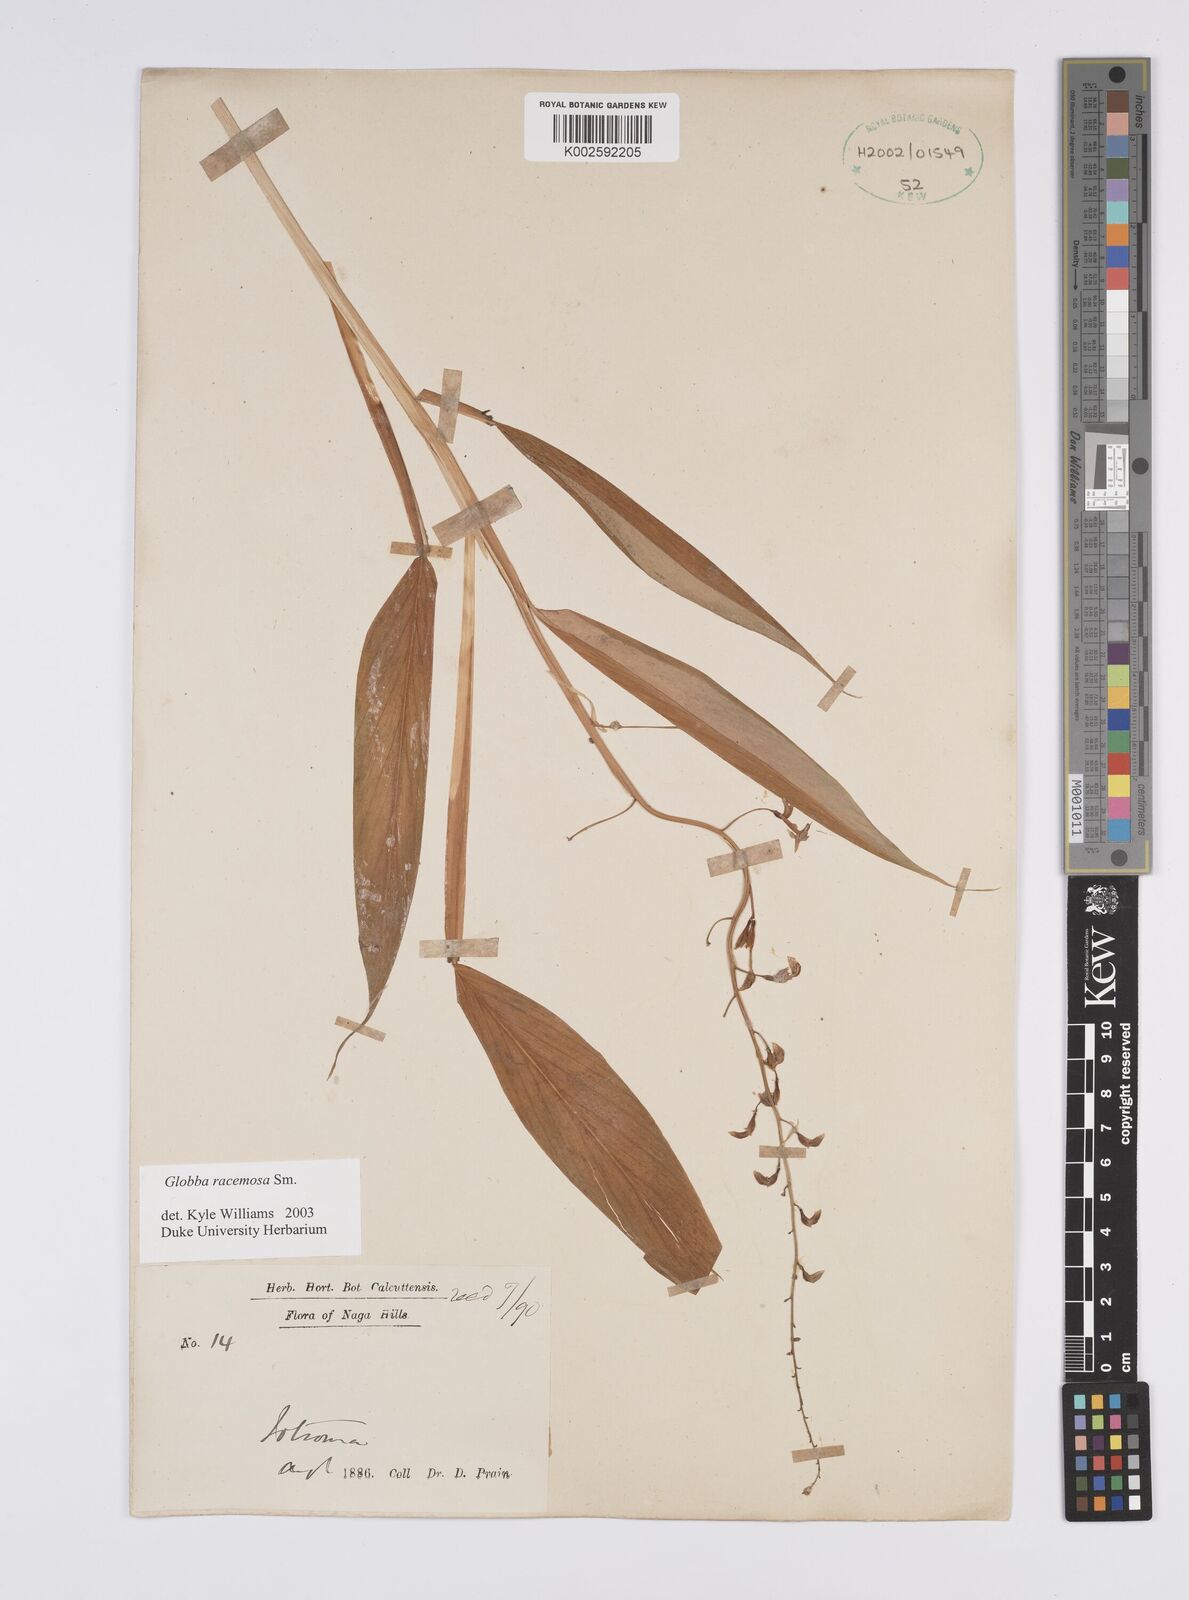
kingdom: Plantae
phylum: Tracheophyta
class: Liliopsida
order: Zingiberales
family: Zingiberaceae
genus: Globba
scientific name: Globba racemosa
